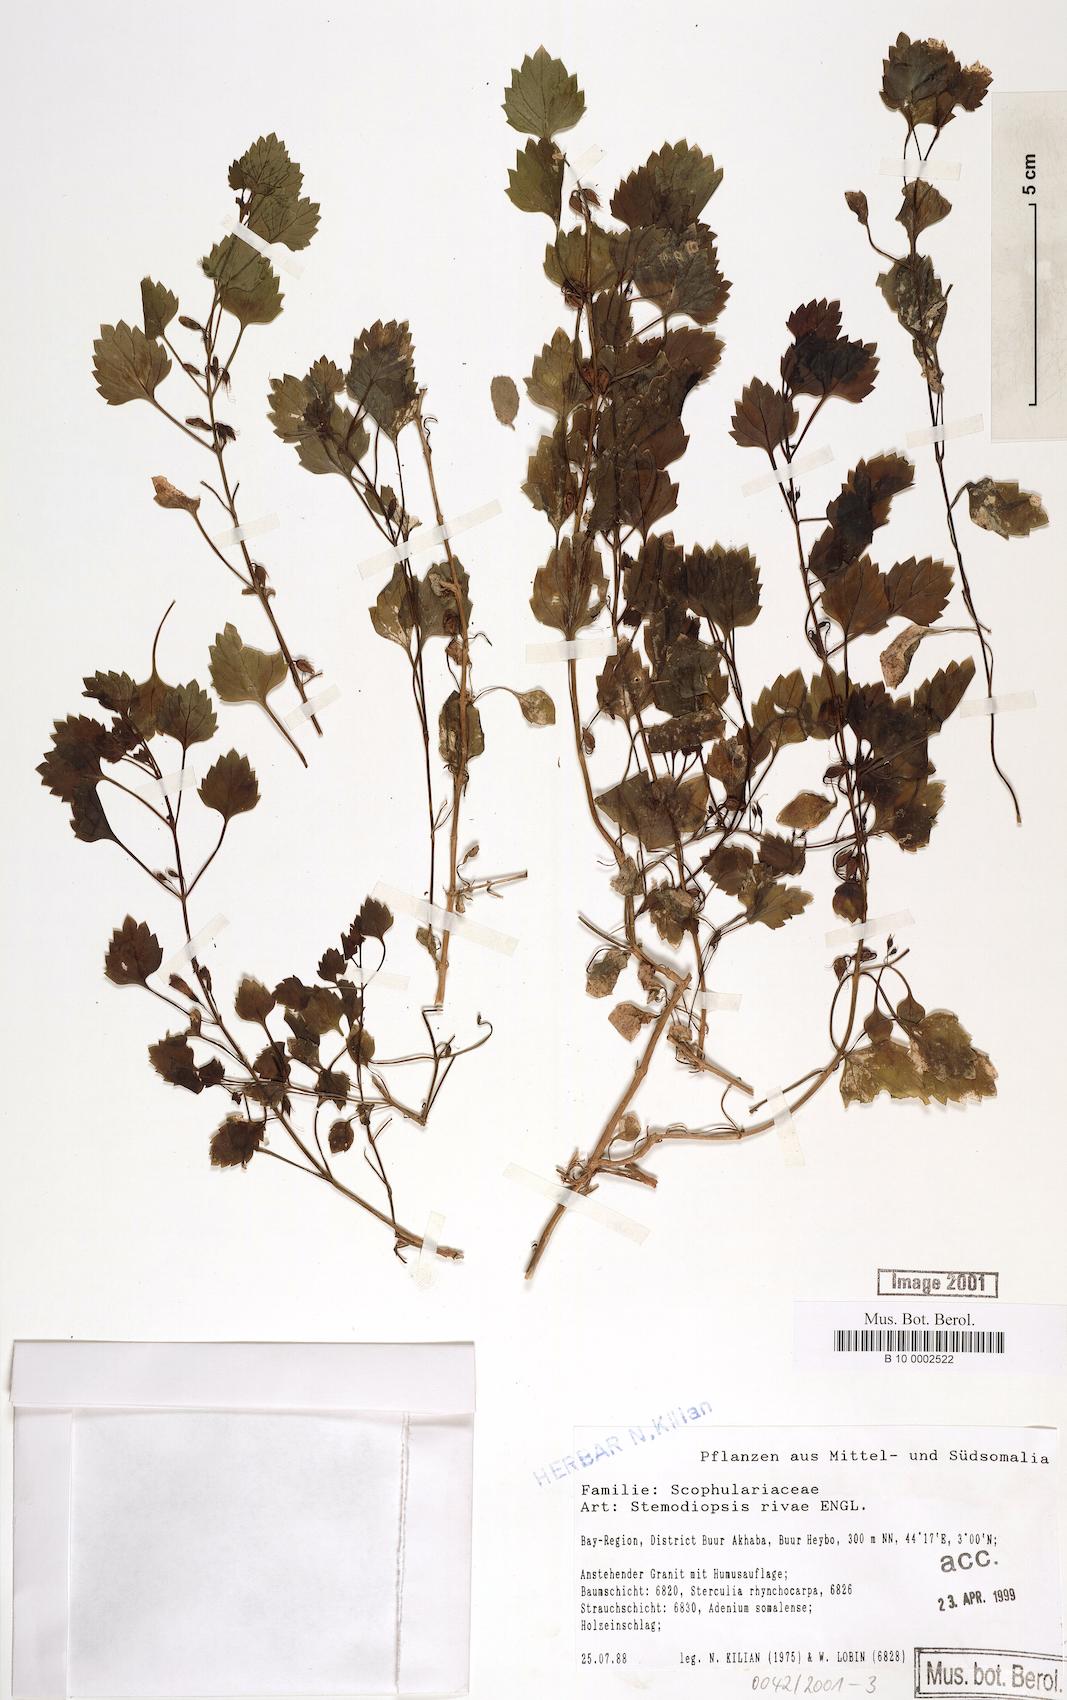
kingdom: Plantae
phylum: Tracheophyta
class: Magnoliopsida
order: Lamiales
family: Linderniaceae
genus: Stemodiopsis
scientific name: Stemodiopsis rivae
